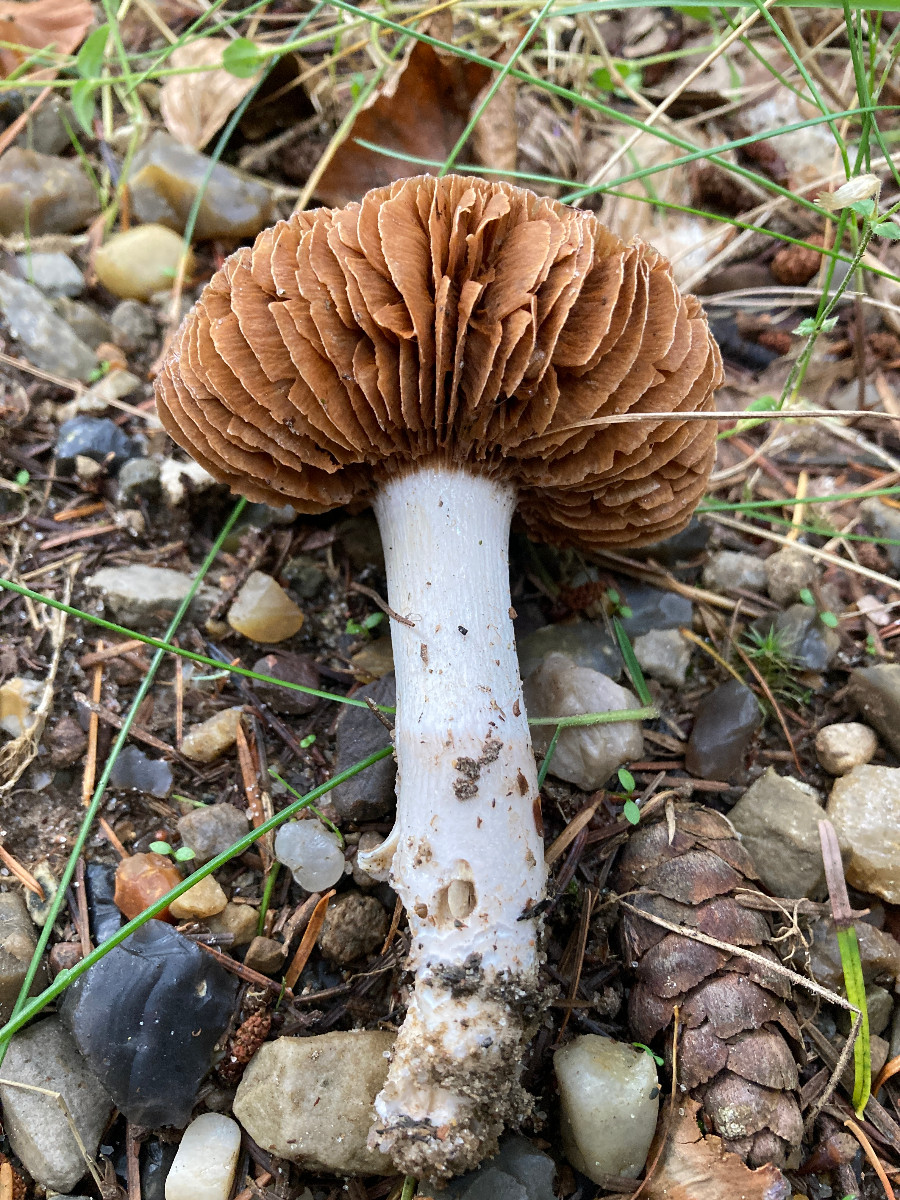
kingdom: Fungi
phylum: Basidiomycota
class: Agaricomycetes
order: Agaricales
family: Cortinariaceae
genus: Cortinarius
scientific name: Cortinarius elatior
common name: høj slørhat
